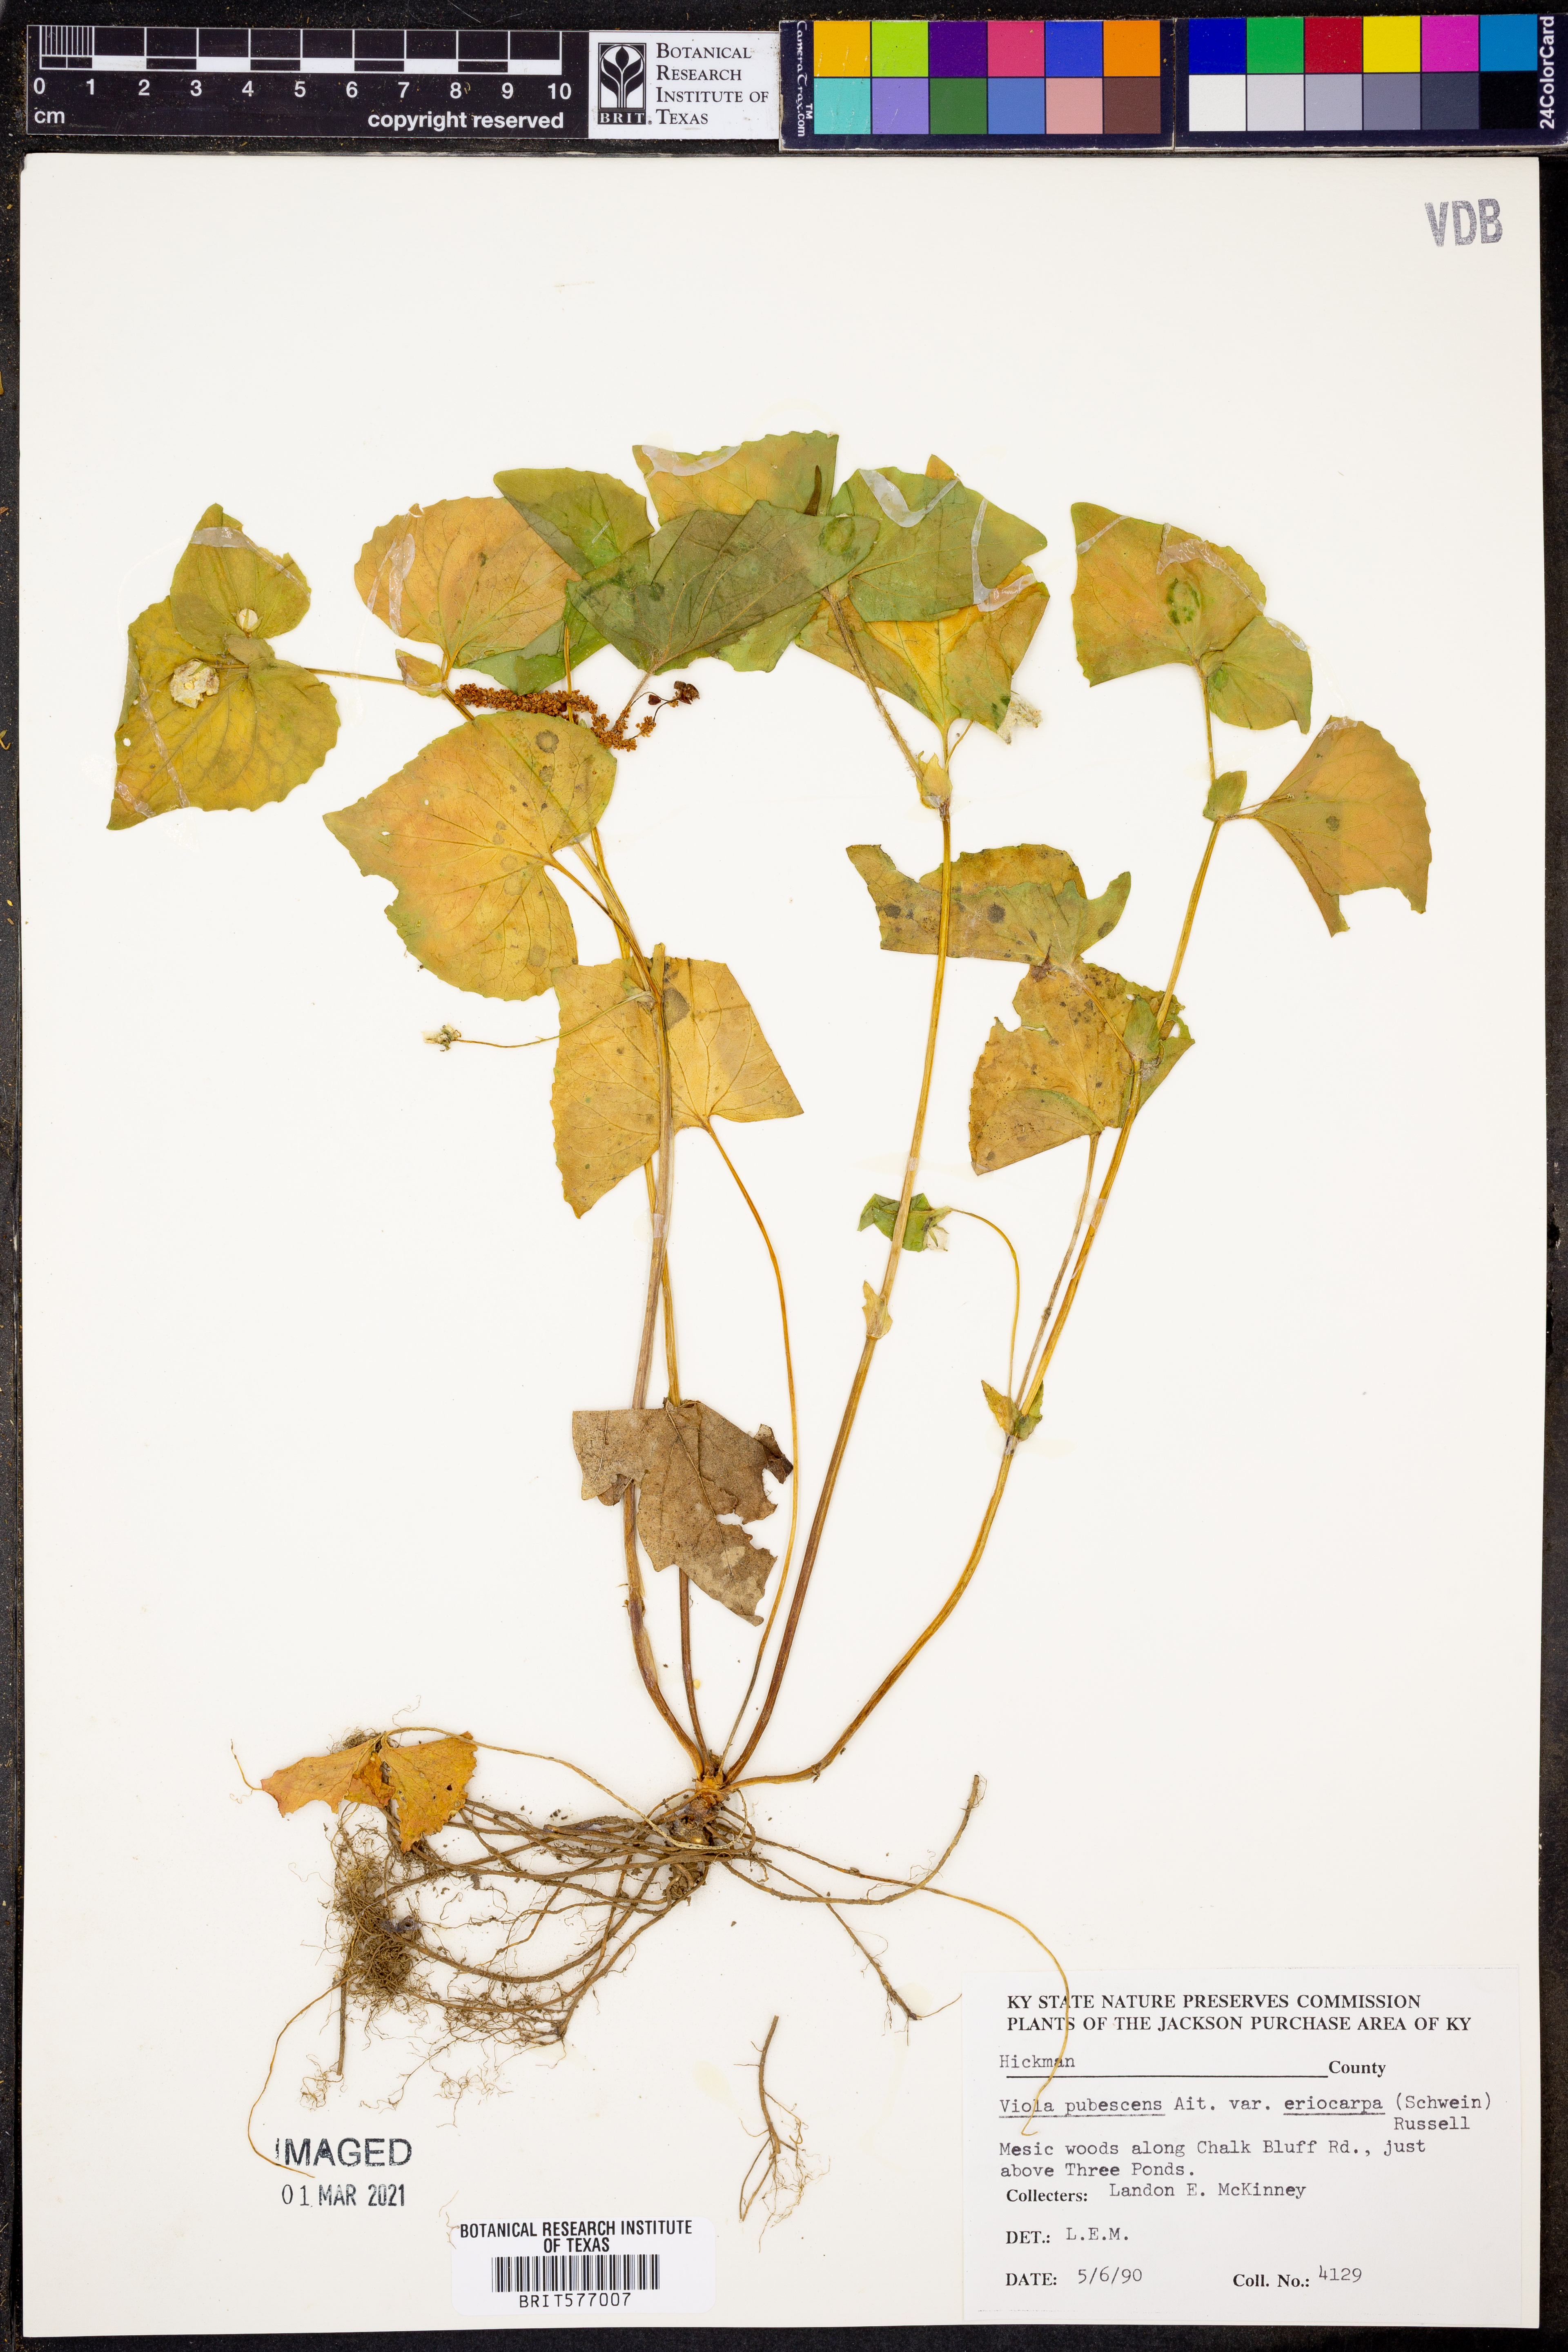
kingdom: Plantae
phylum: Tracheophyta
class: Magnoliopsida
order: Malpighiales
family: Violaceae
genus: Viola
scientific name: Viola eriocarpa
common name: Smooth yellow violet
